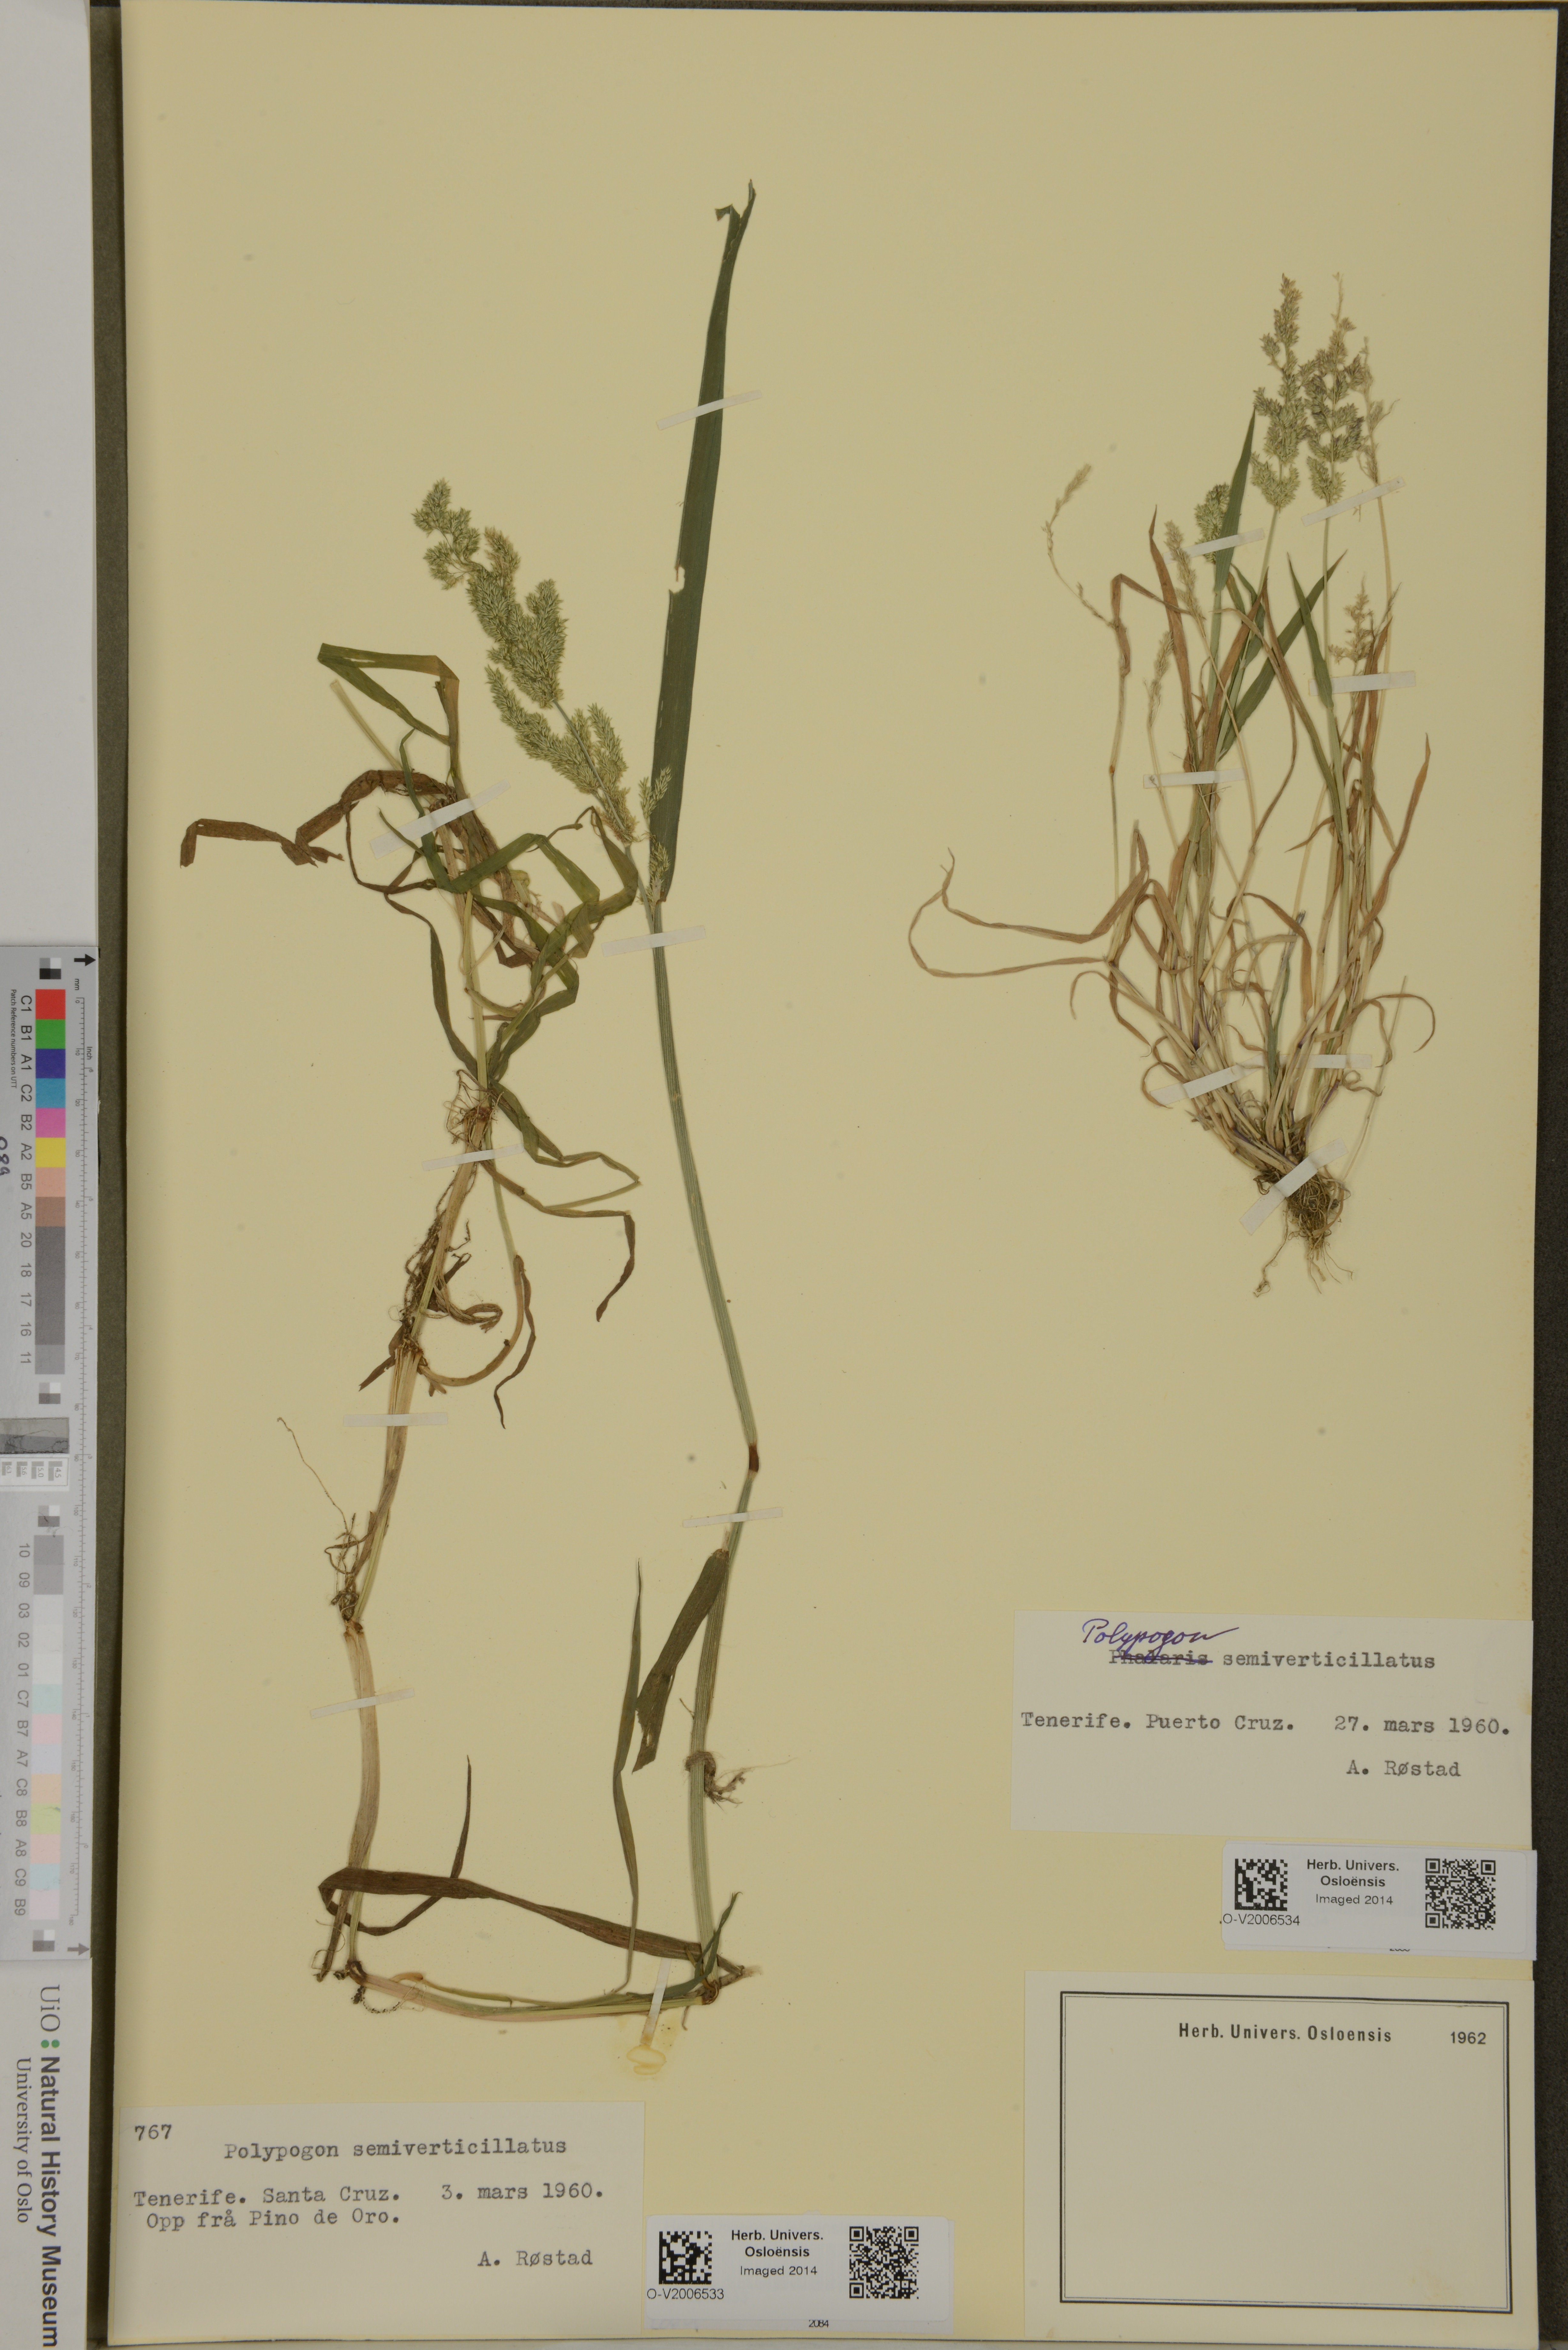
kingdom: Plantae
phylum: Tracheophyta
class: Liliopsida
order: Poales
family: Poaceae
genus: Polypogon
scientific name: Polypogon viridis
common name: Water bent
